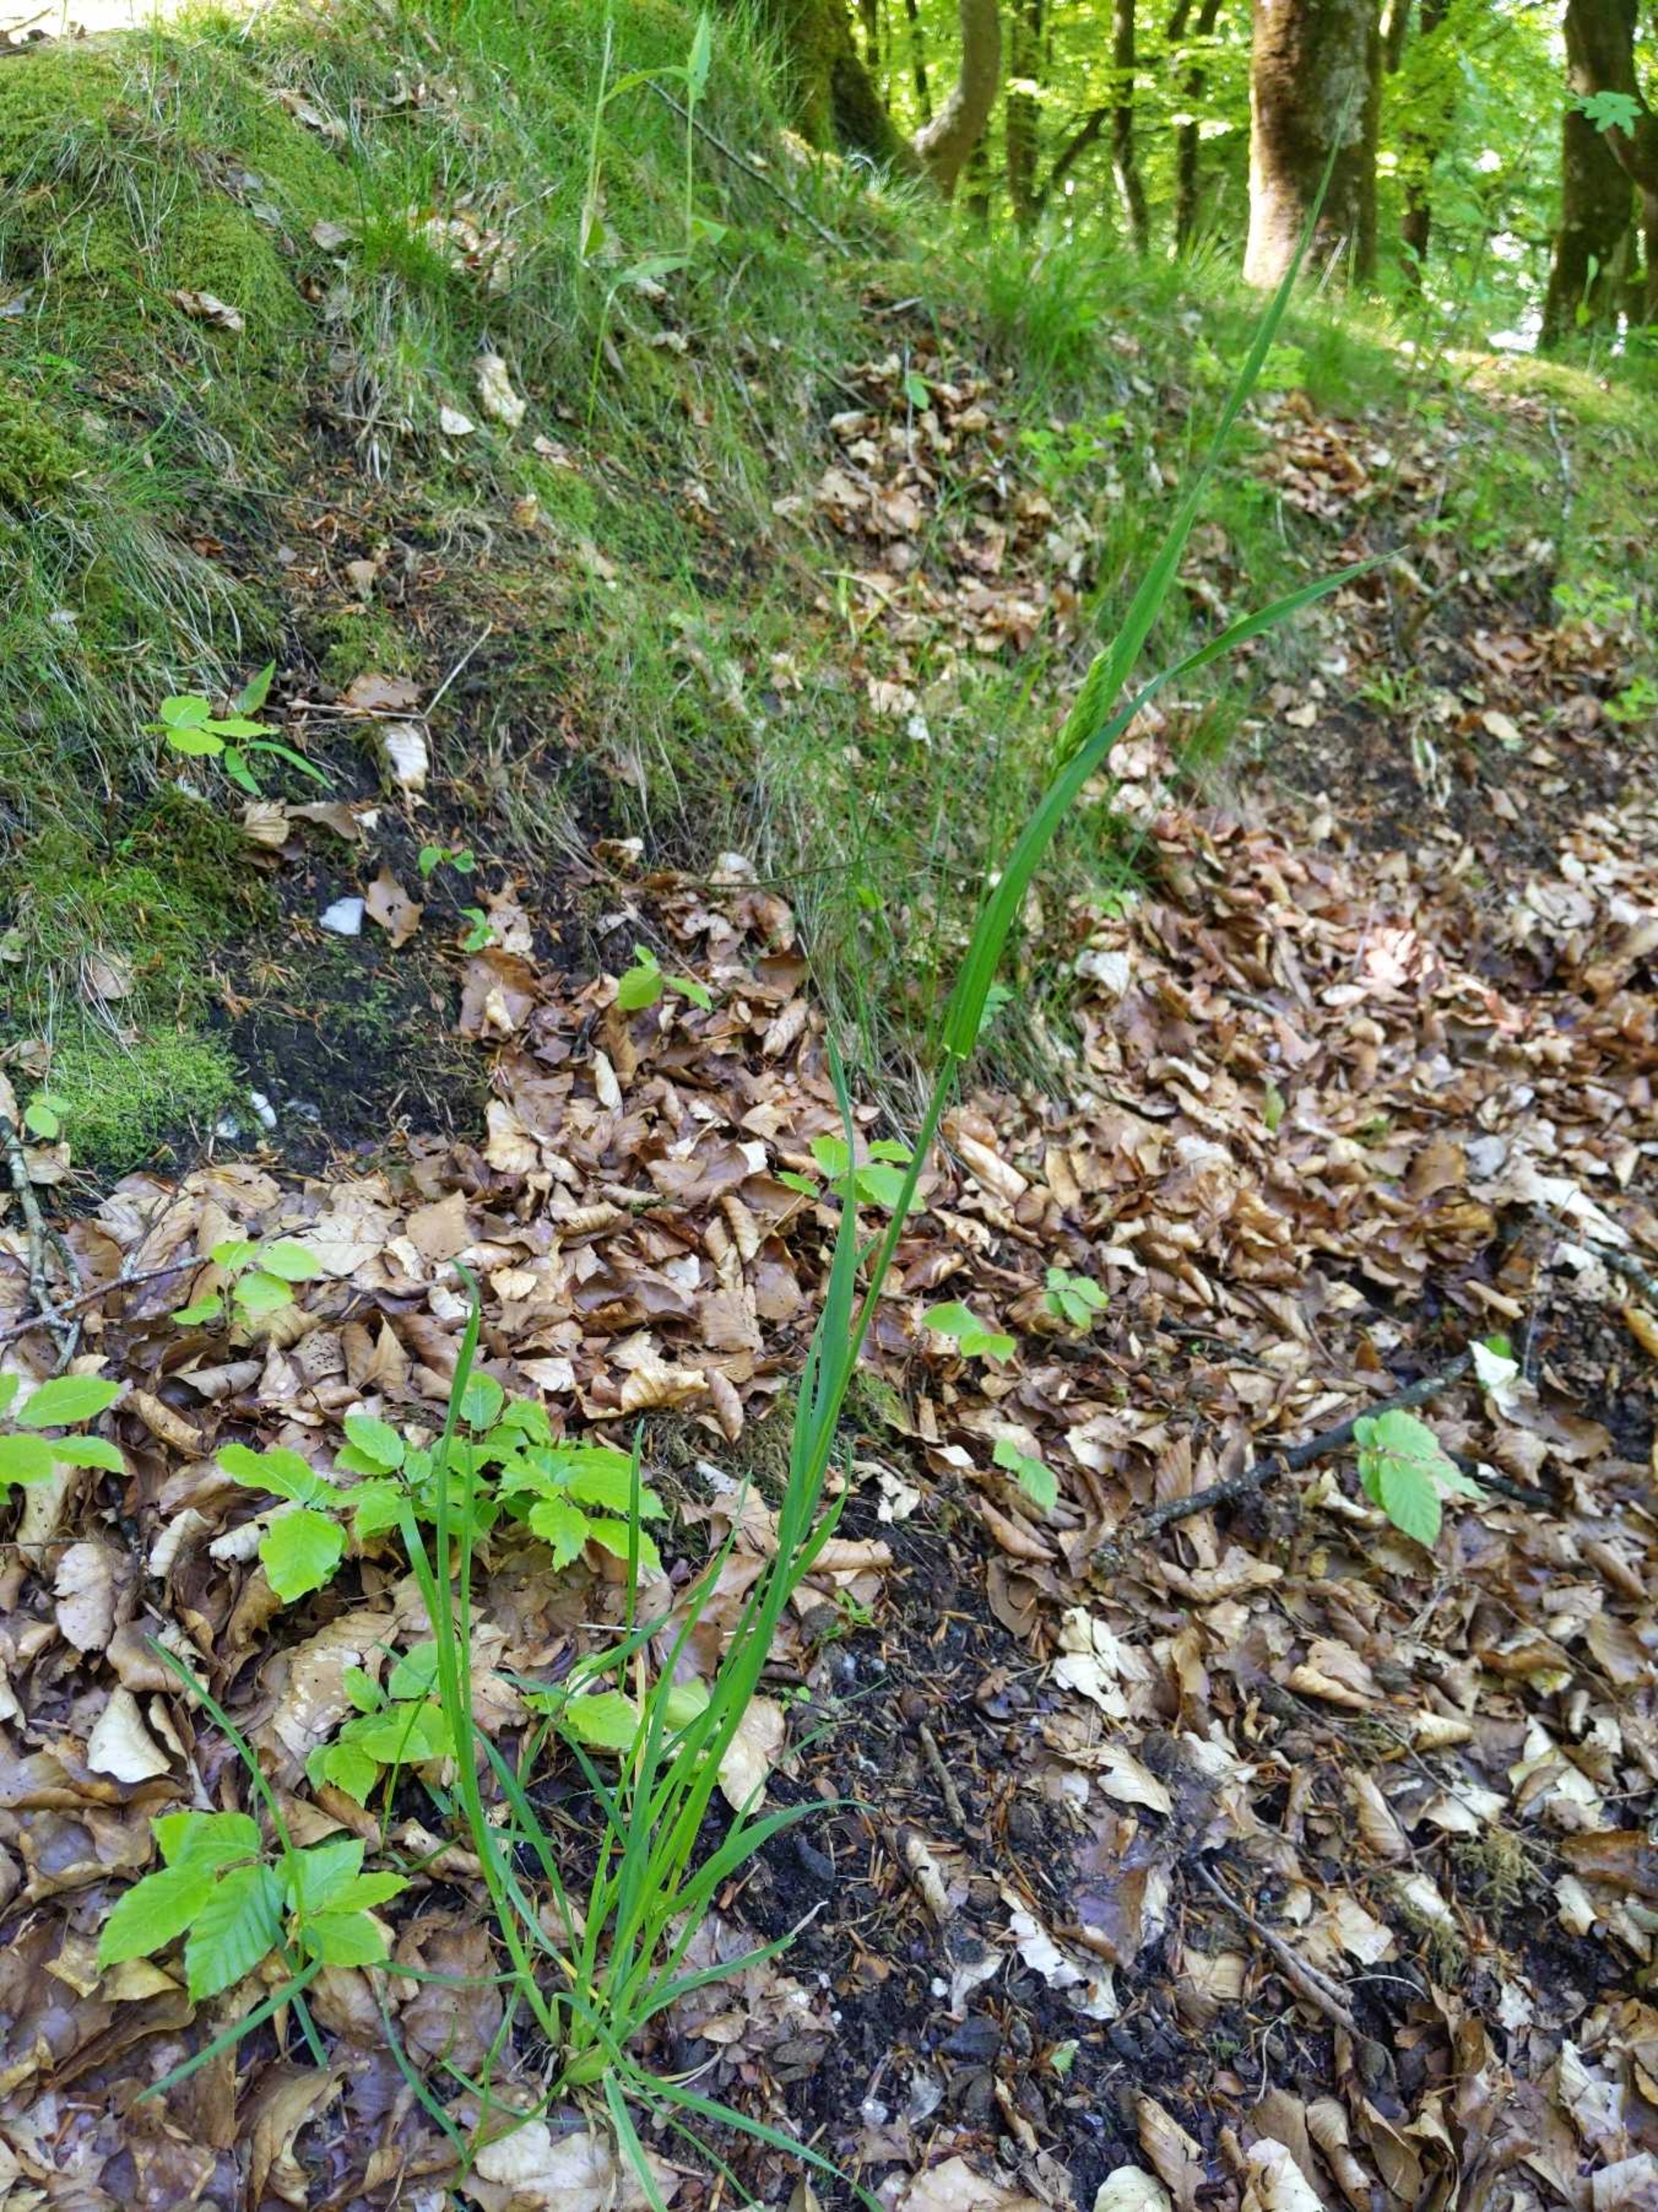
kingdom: Plantae
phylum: Tracheophyta
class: Liliopsida
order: Poales
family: Poaceae
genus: Dactylis
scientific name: Dactylis glomerata
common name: Almindelig hundegræs
